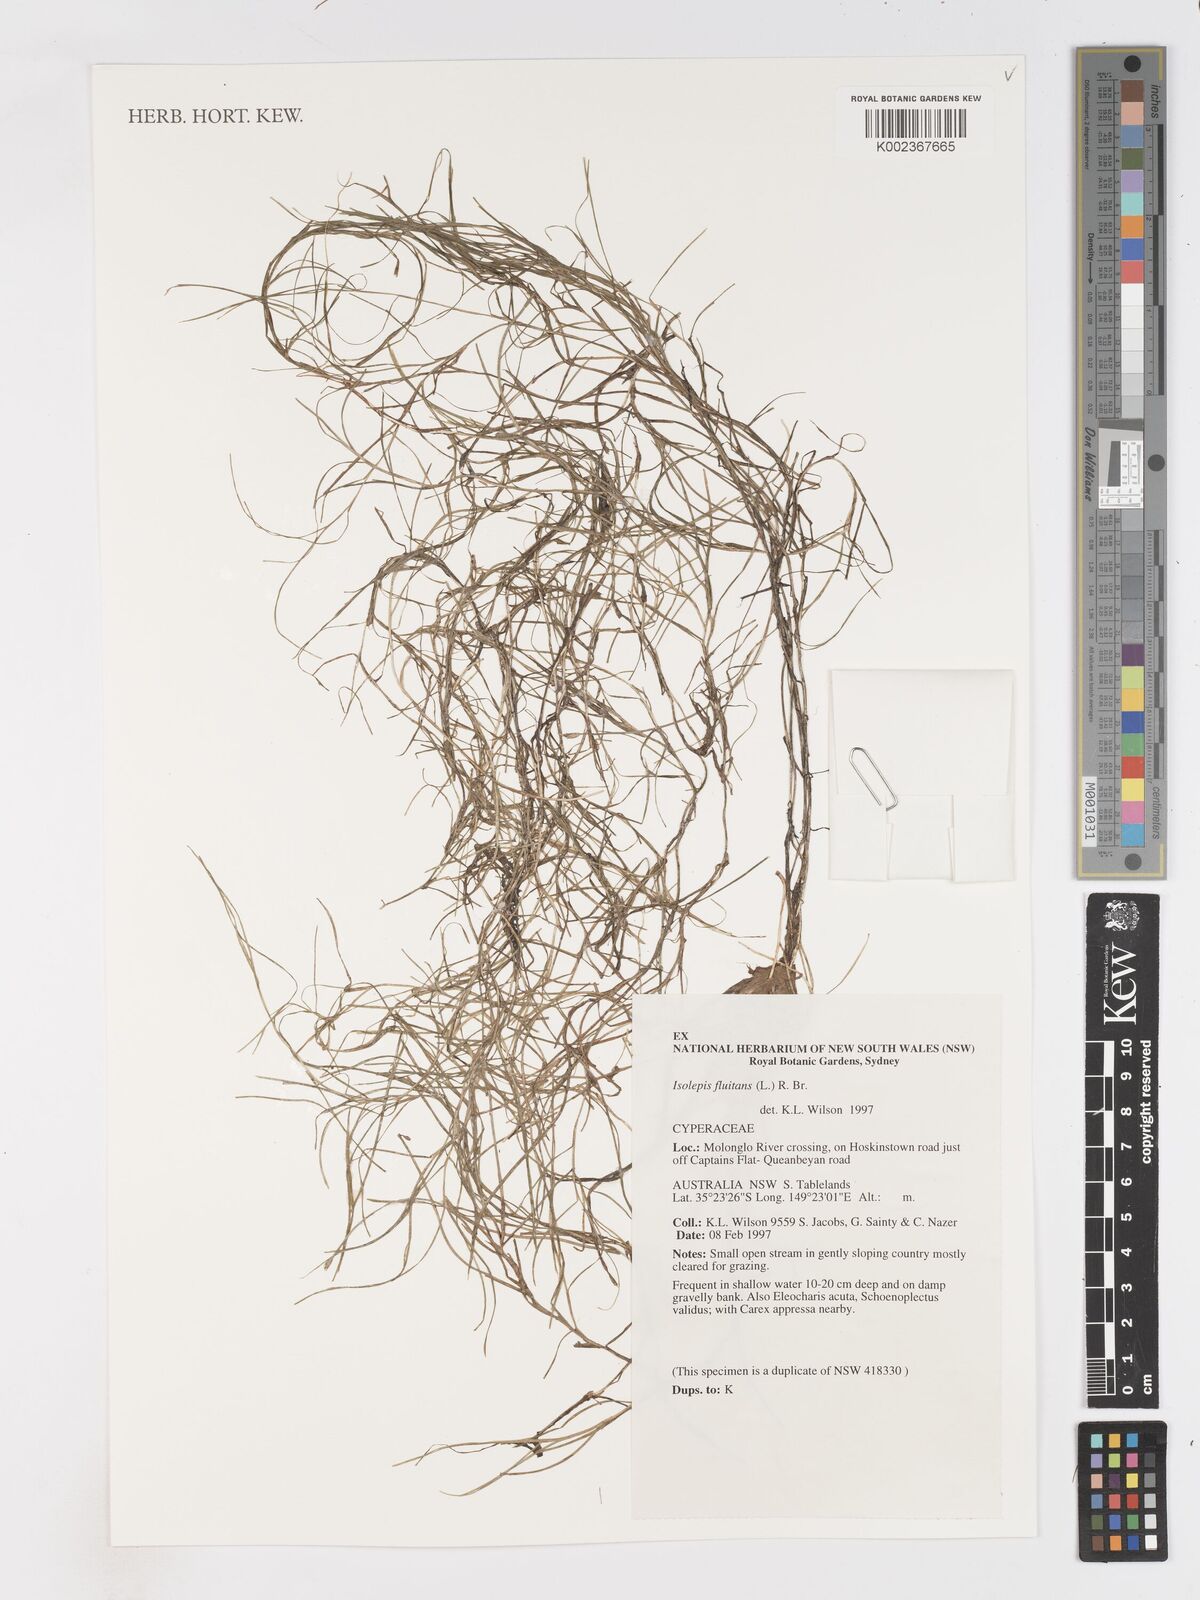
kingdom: Plantae
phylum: Tracheophyta
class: Liliopsida
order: Poales
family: Cyperaceae
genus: Isolepis
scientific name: Isolepis fluitans
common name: Floating club-rush
